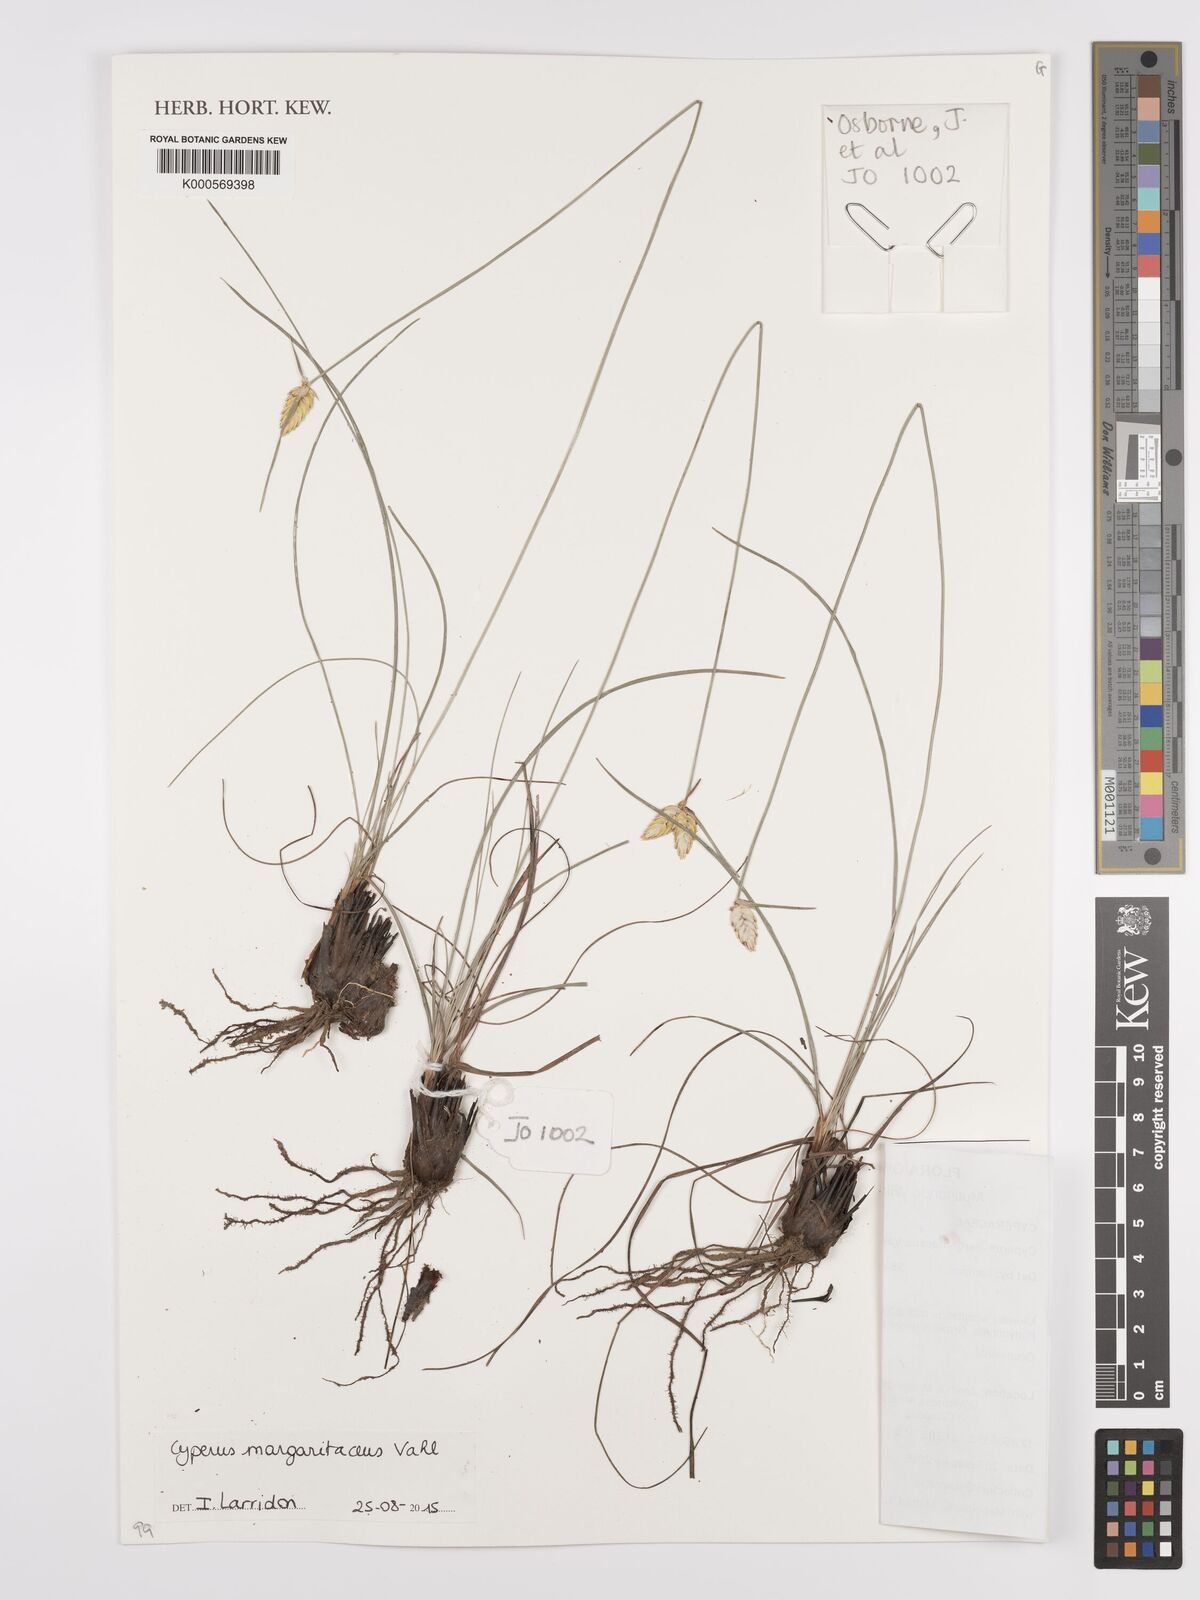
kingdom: Plantae
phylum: Tracheophyta
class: Liliopsida
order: Poales
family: Cyperaceae
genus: Cyperus
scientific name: Cyperus margaritaceus
